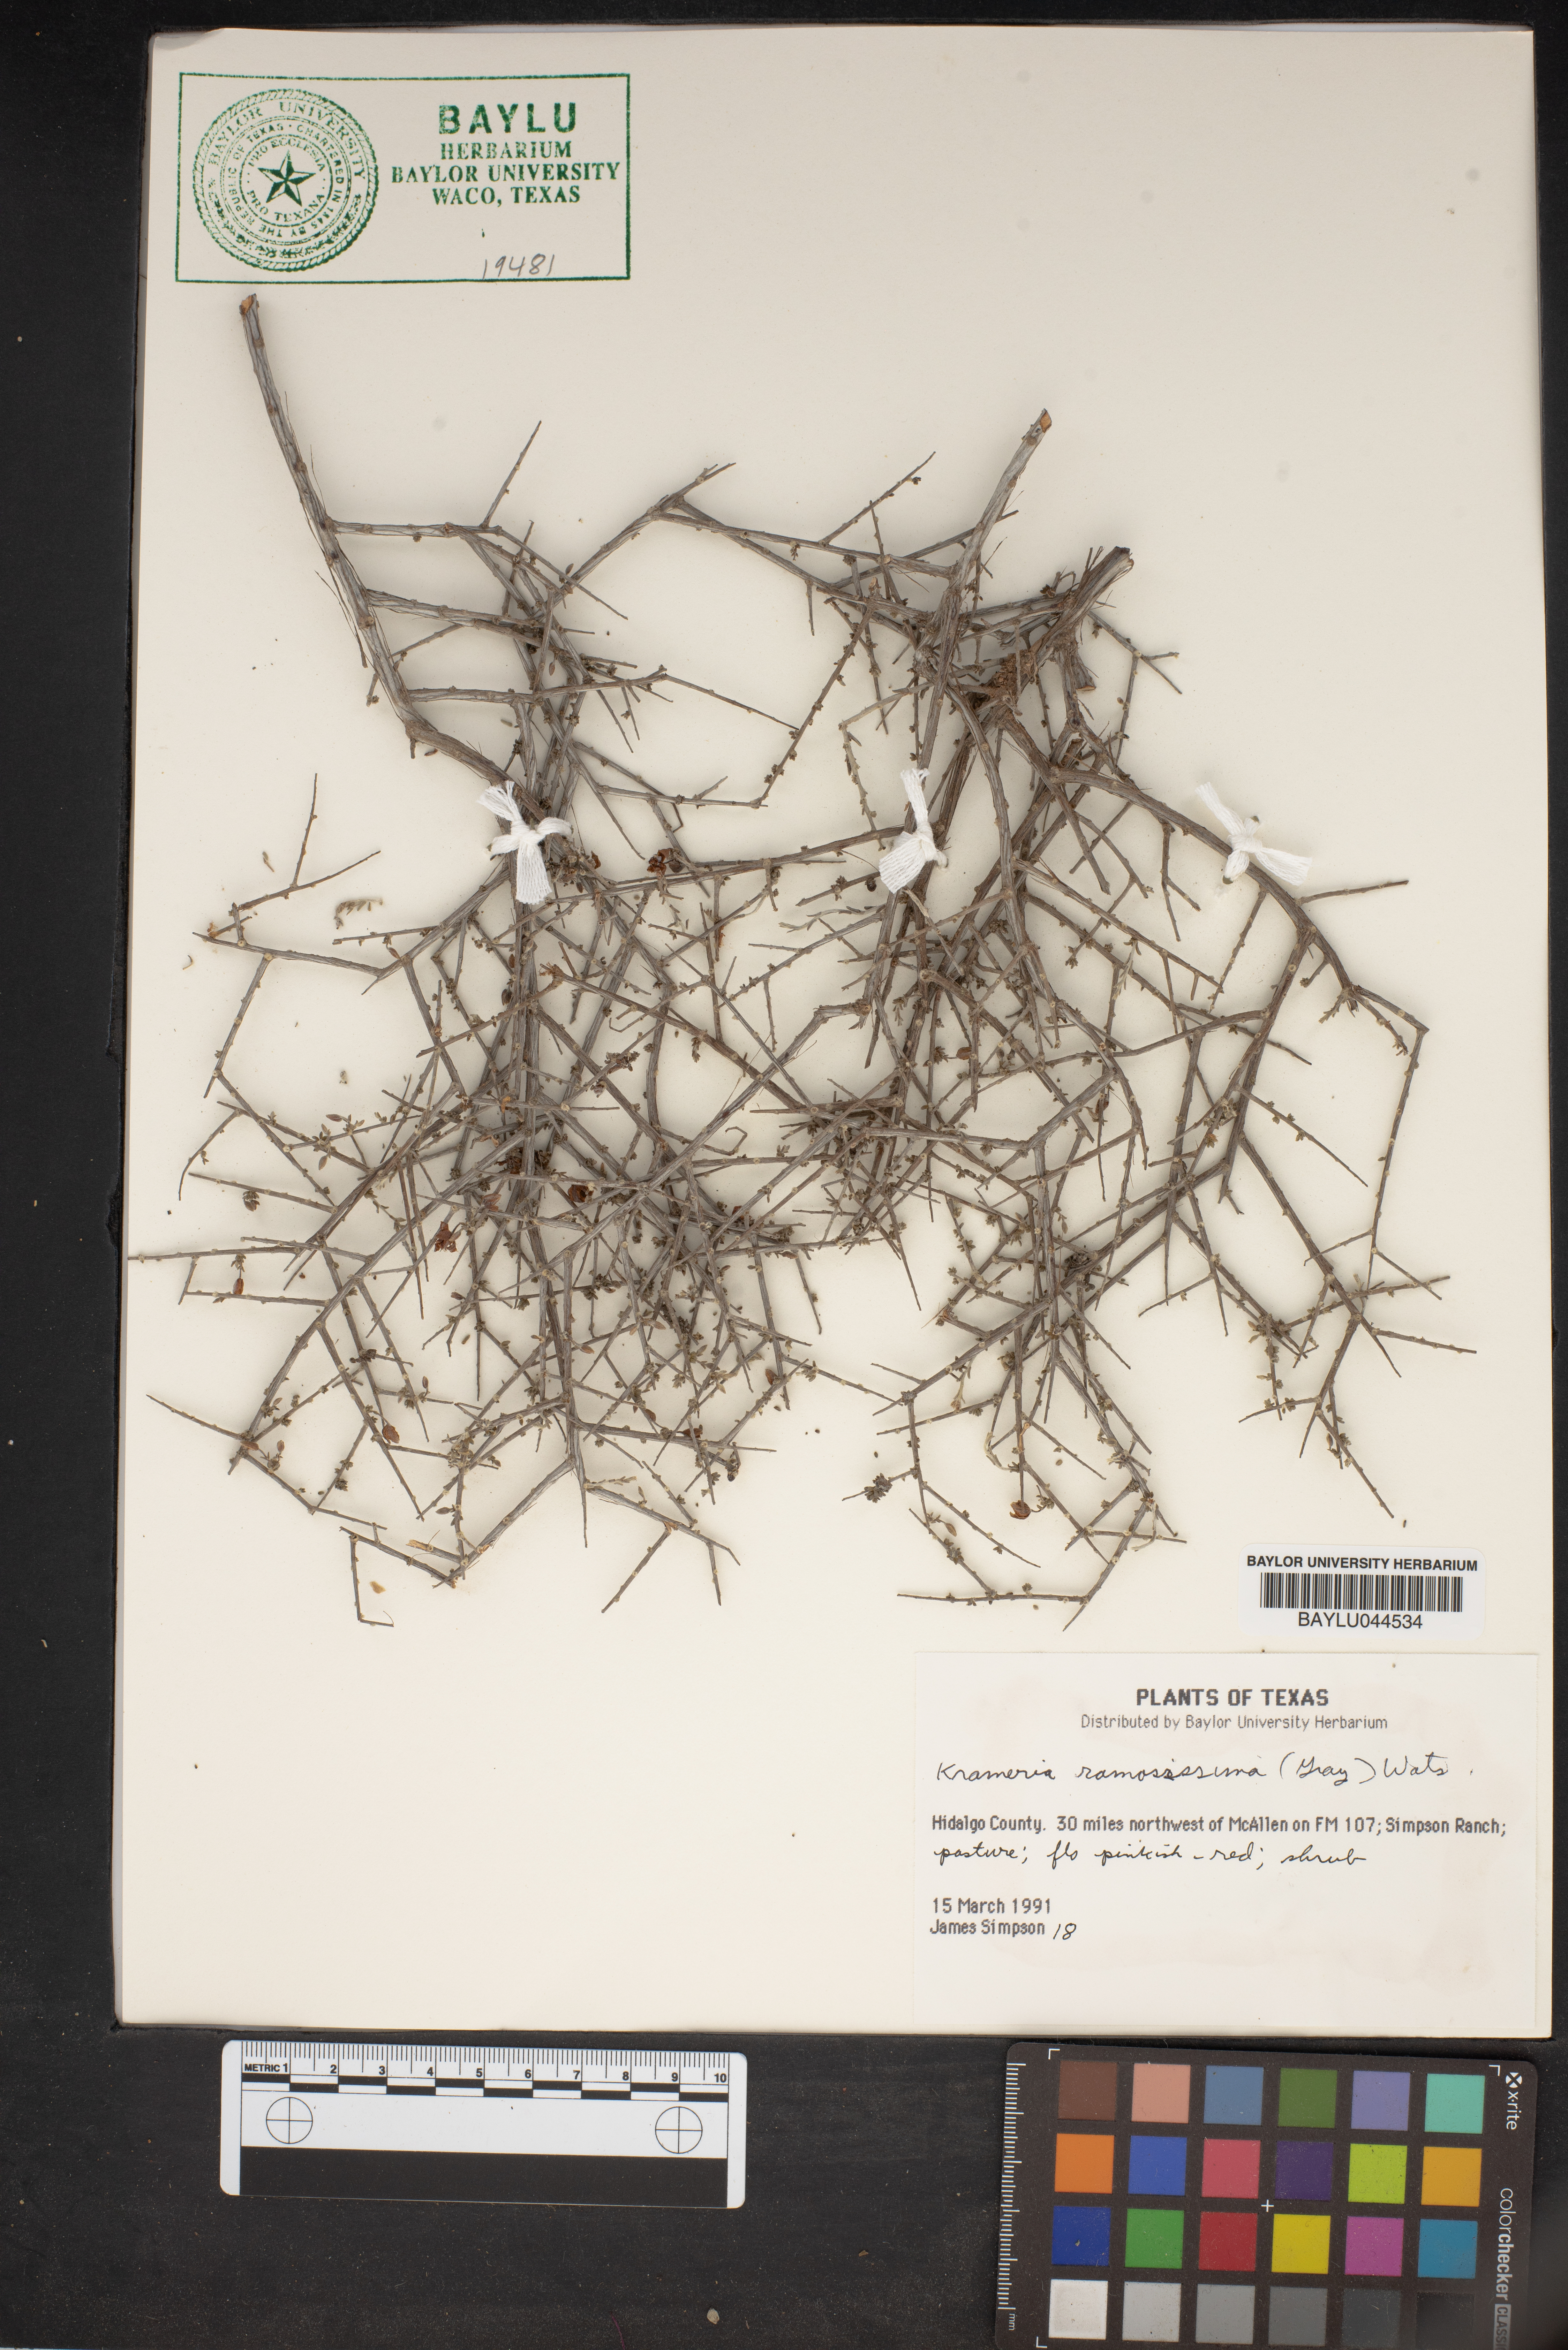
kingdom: Plantae
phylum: Tracheophyta
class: Magnoliopsida
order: Zygophyllales
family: Krameriaceae
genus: Krameria
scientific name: Krameria ramosissima
